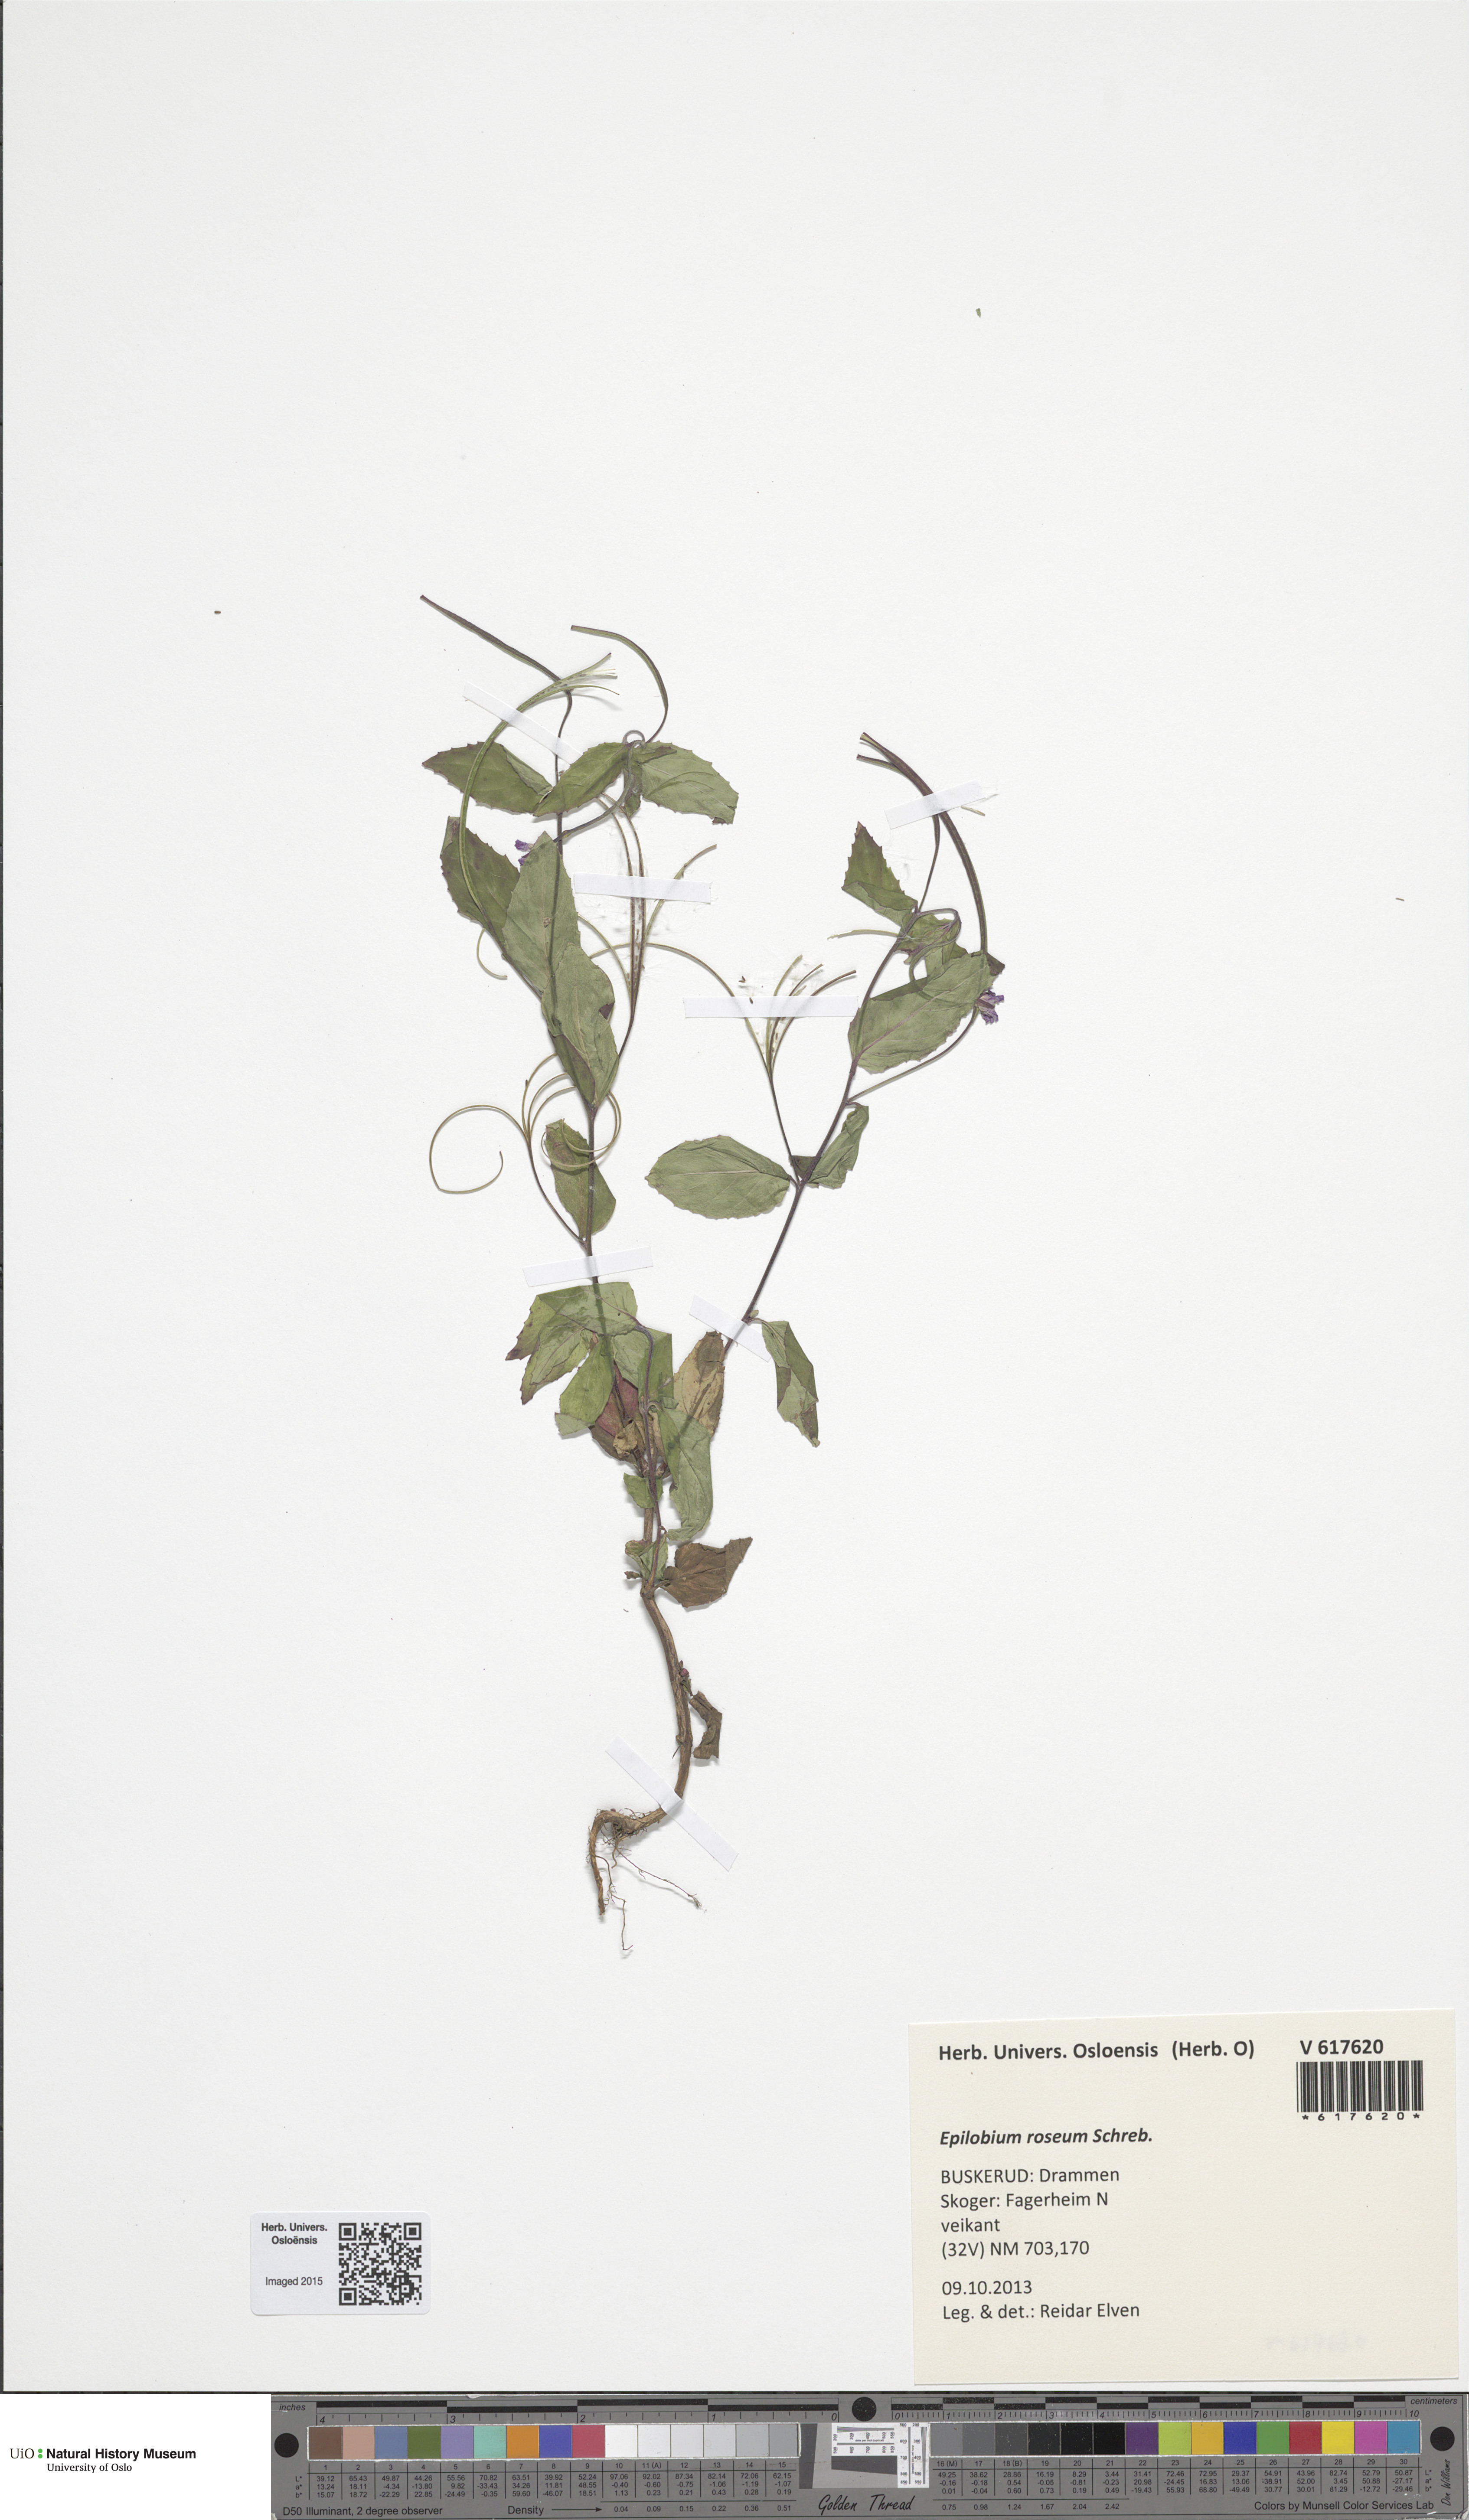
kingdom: Plantae
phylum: Tracheophyta
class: Magnoliopsida
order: Myrtales
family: Onagraceae
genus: Epilobium
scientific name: Epilobium roseum
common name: Pale willowherb
